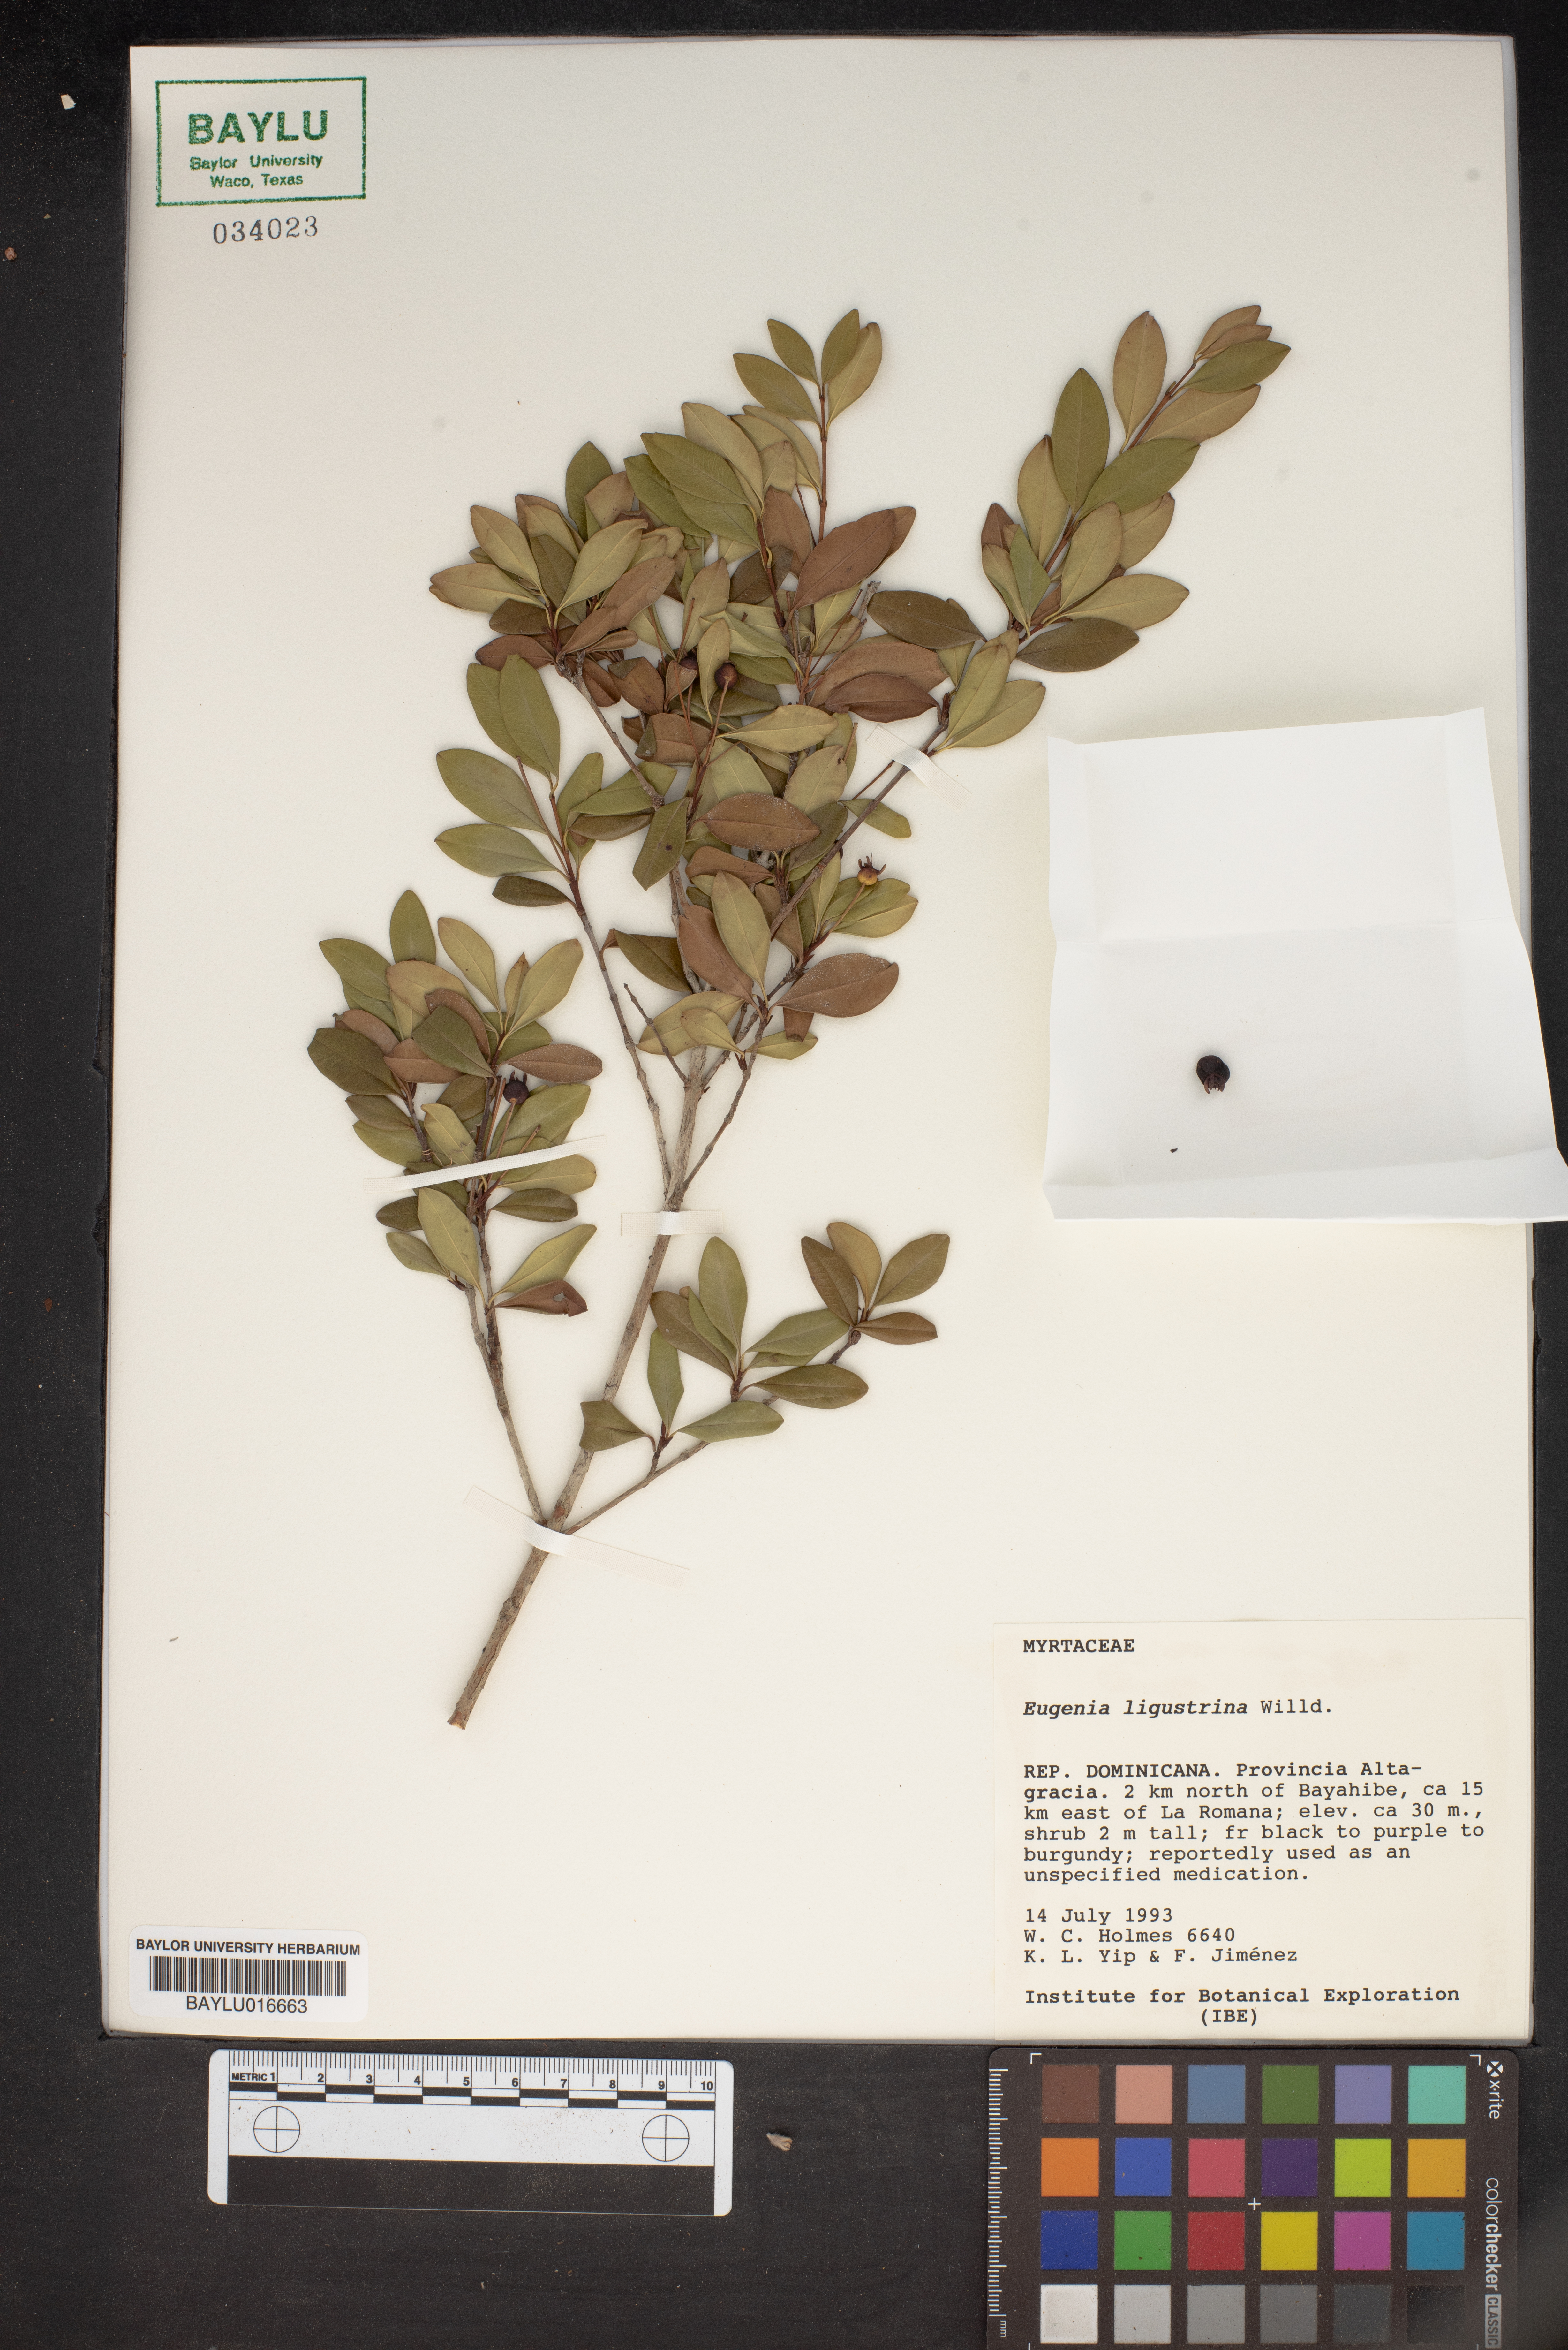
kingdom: Plantae
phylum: Tracheophyta
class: Magnoliopsida
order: Myrtales
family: Myrtaceae
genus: Eugenia
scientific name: Eugenia ligustrina
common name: Privet stopper
